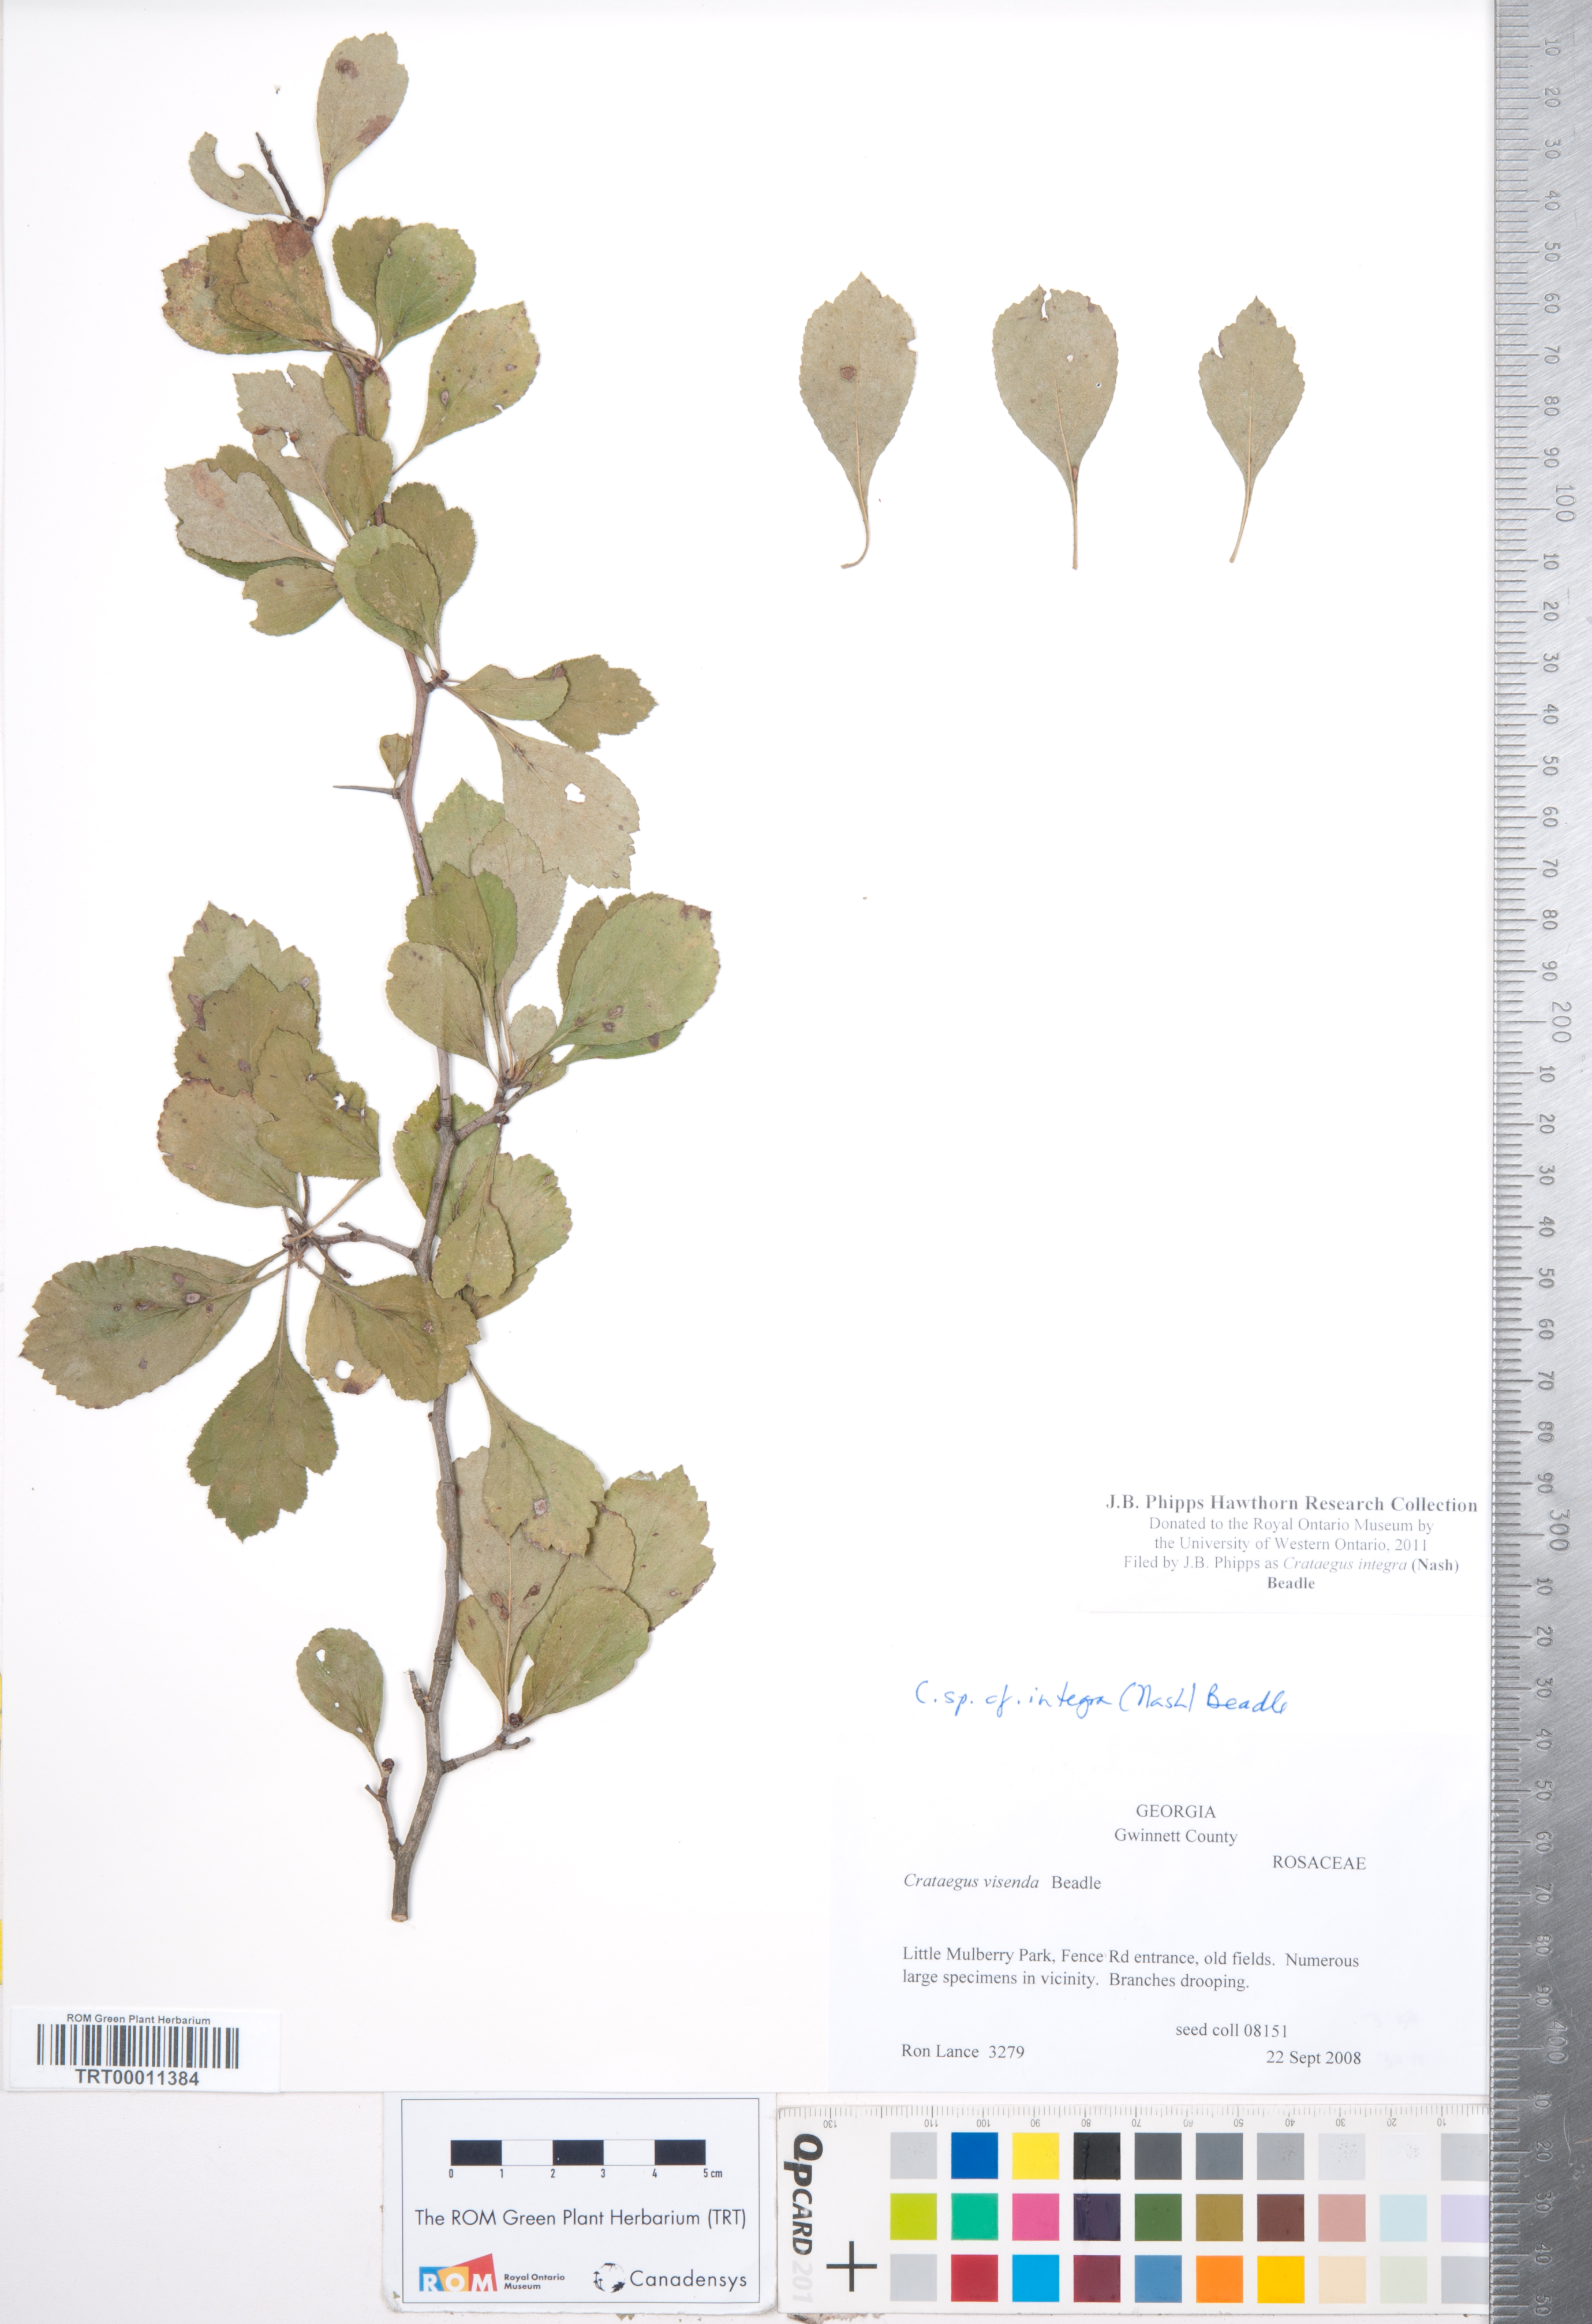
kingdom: Plantae
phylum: Tracheophyta
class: Magnoliopsida
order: Rosales
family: Rosaceae
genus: Crataegus
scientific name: Crataegus lassa
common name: Florida hawthorn
